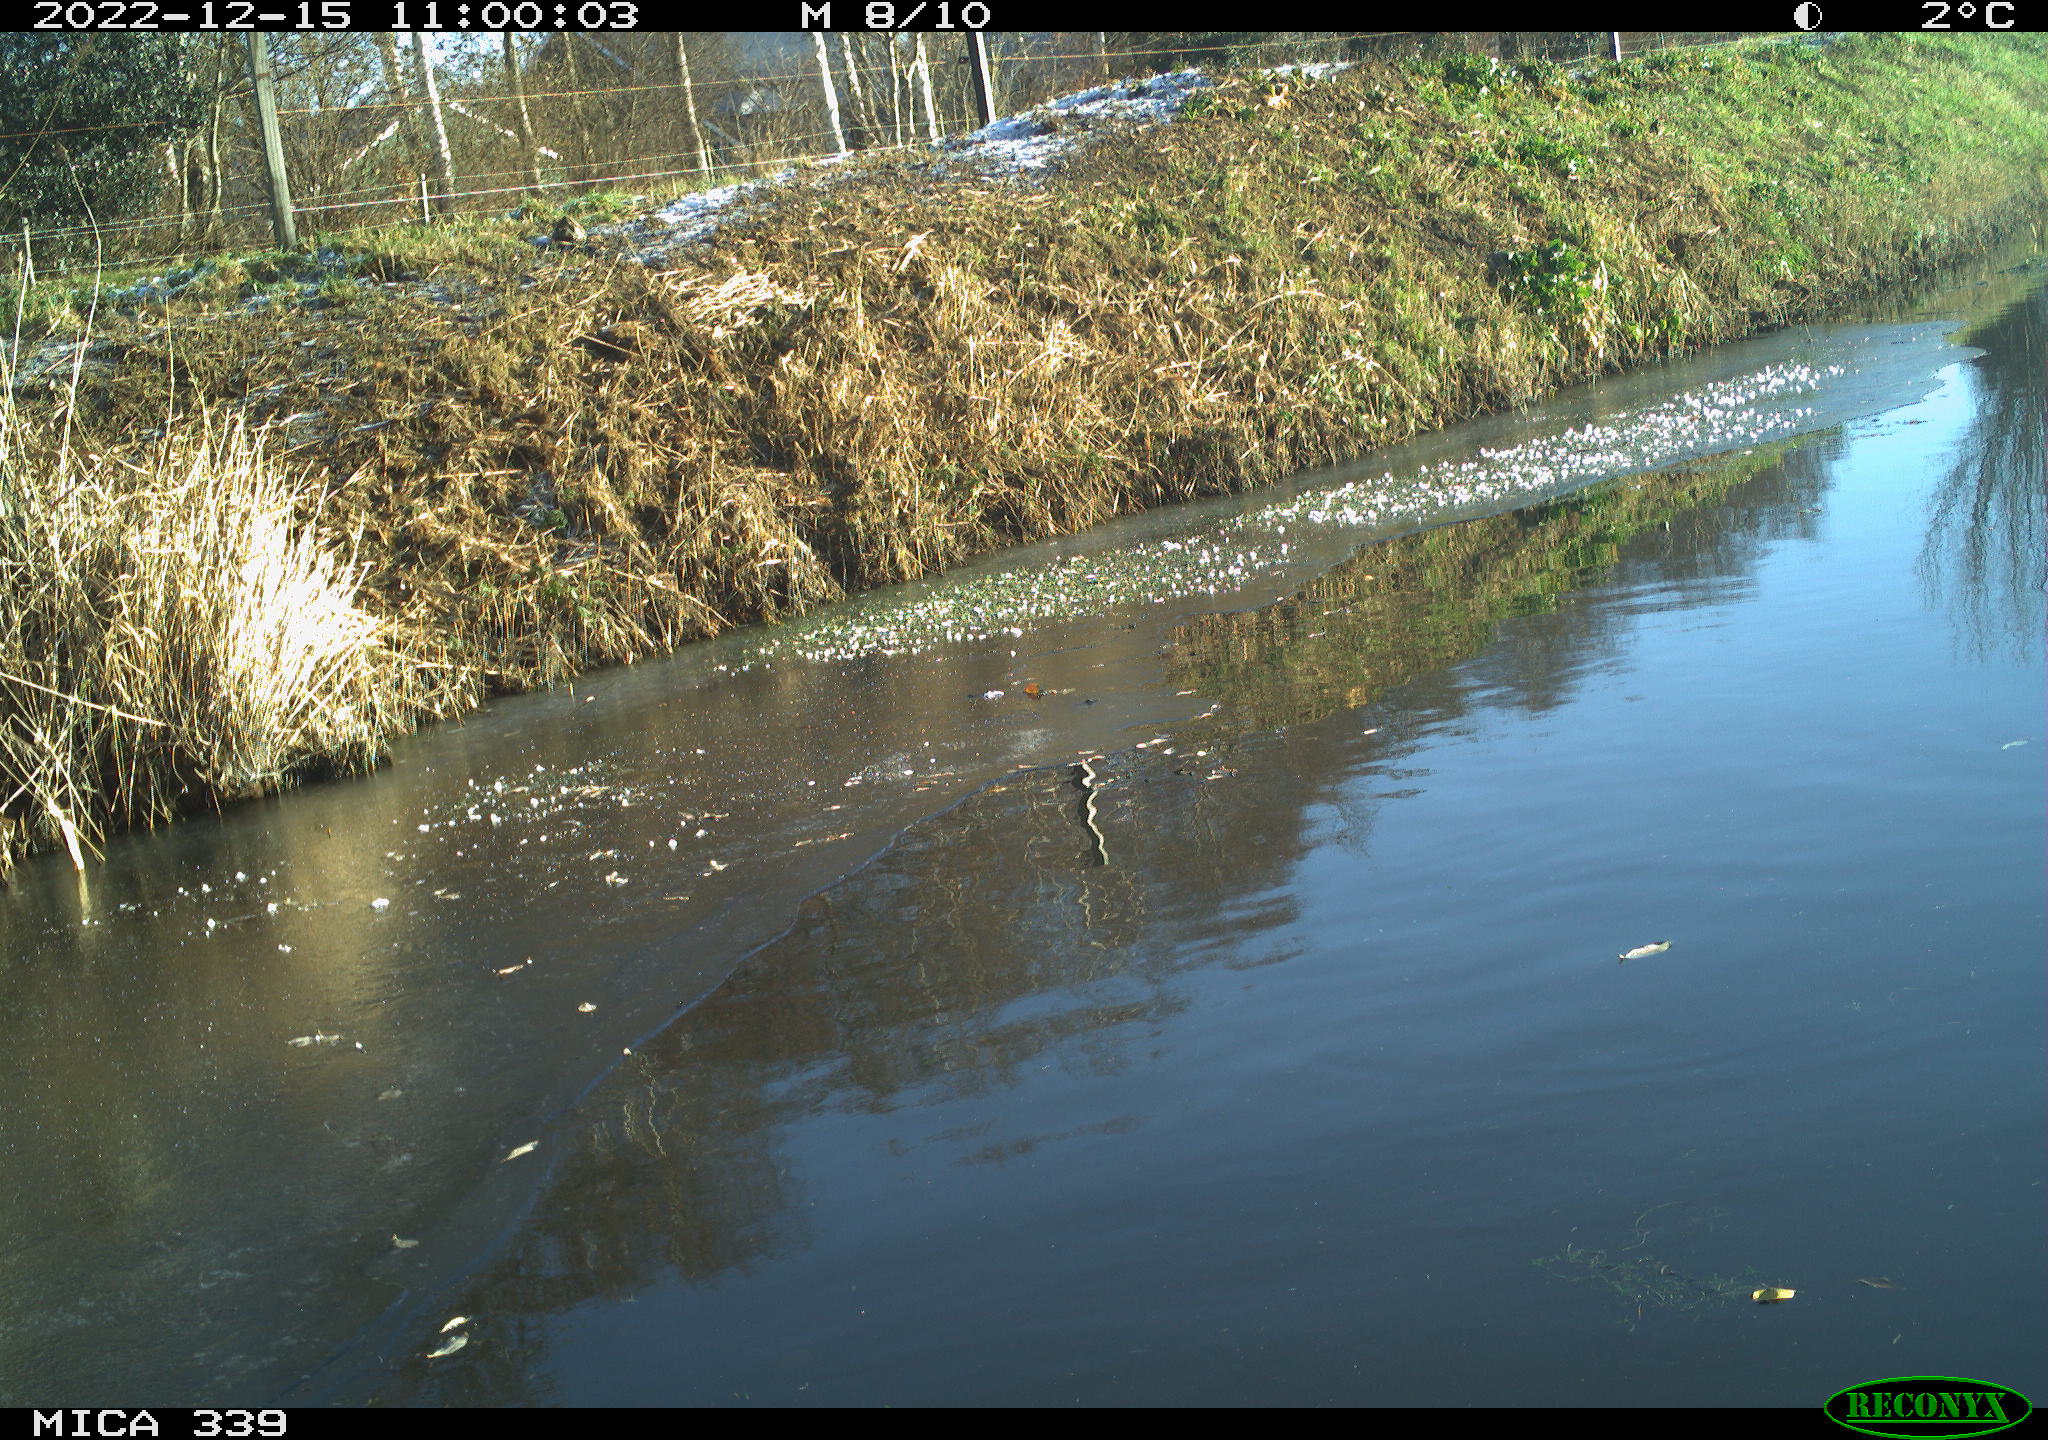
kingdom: Animalia
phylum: Chordata
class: Aves
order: Pelecaniformes
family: Ardeidae
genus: Ardea
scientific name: Ardea alba
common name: Great egret
